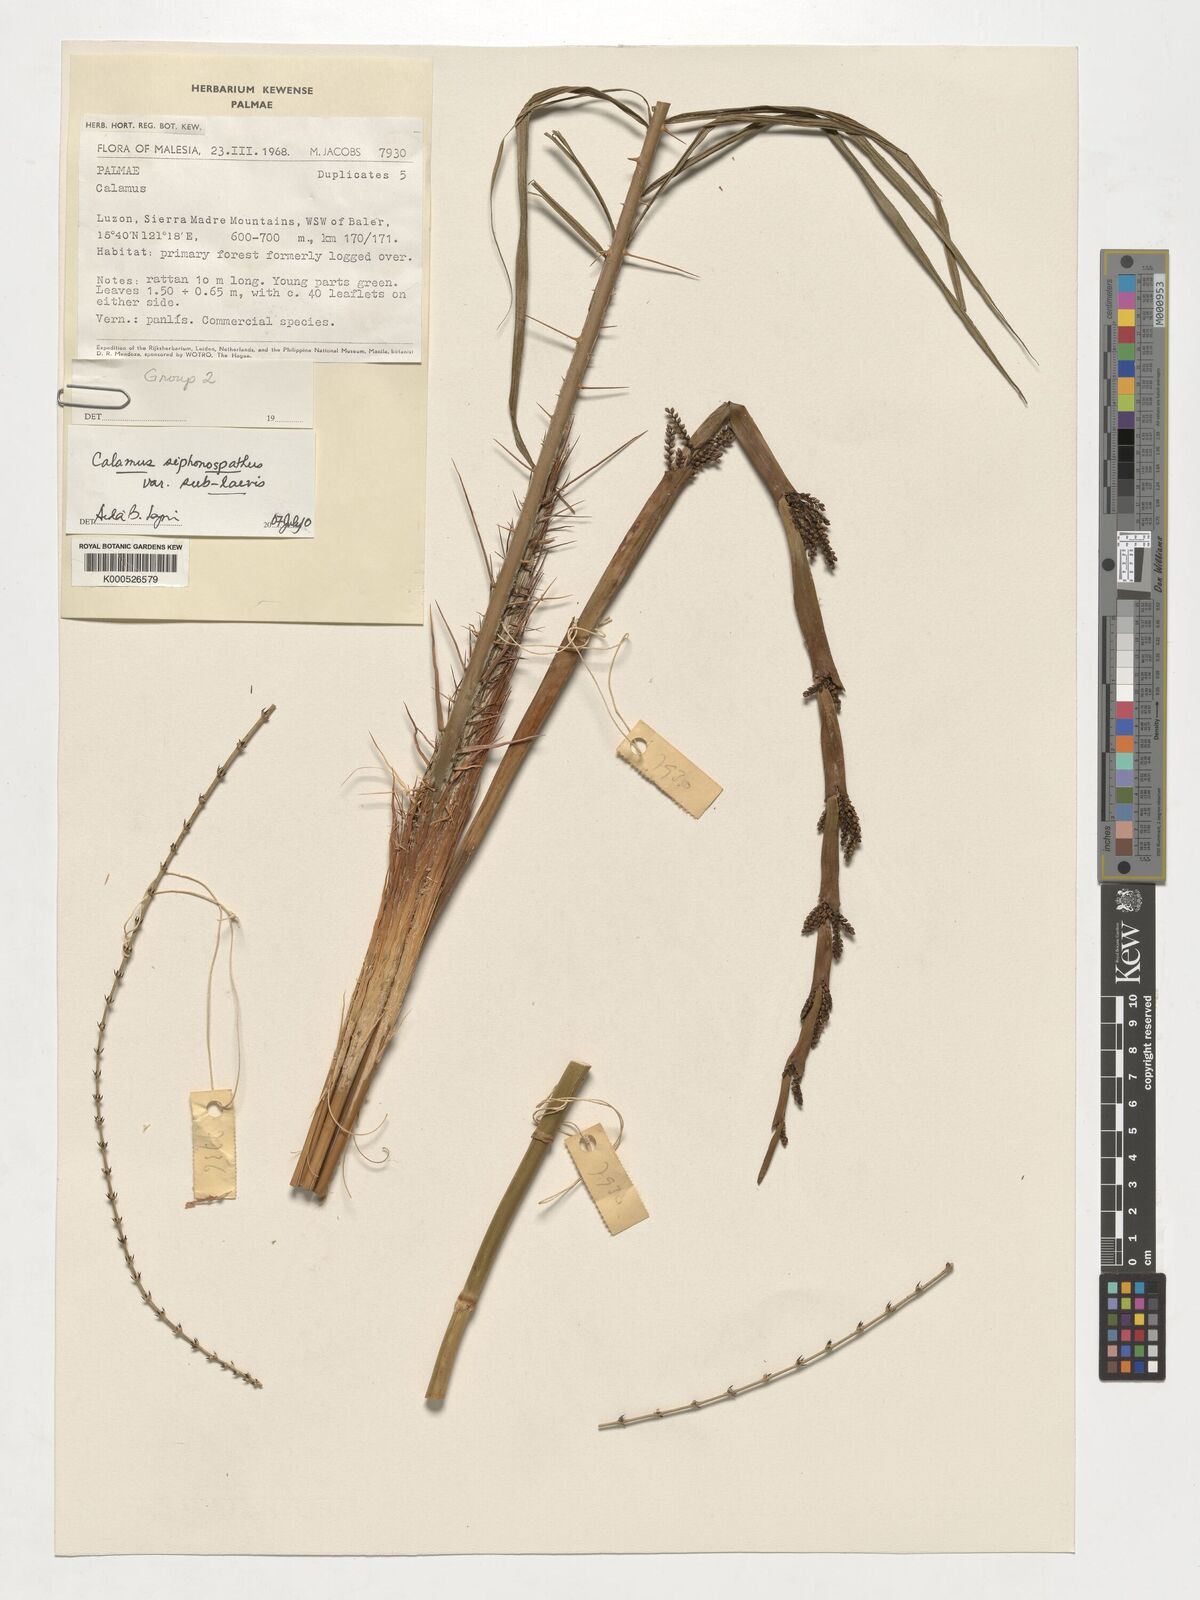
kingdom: Plantae
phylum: Tracheophyta
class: Liliopsida
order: Arecales
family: Arecaceae
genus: Calamus
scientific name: Calamus siphonospathus
